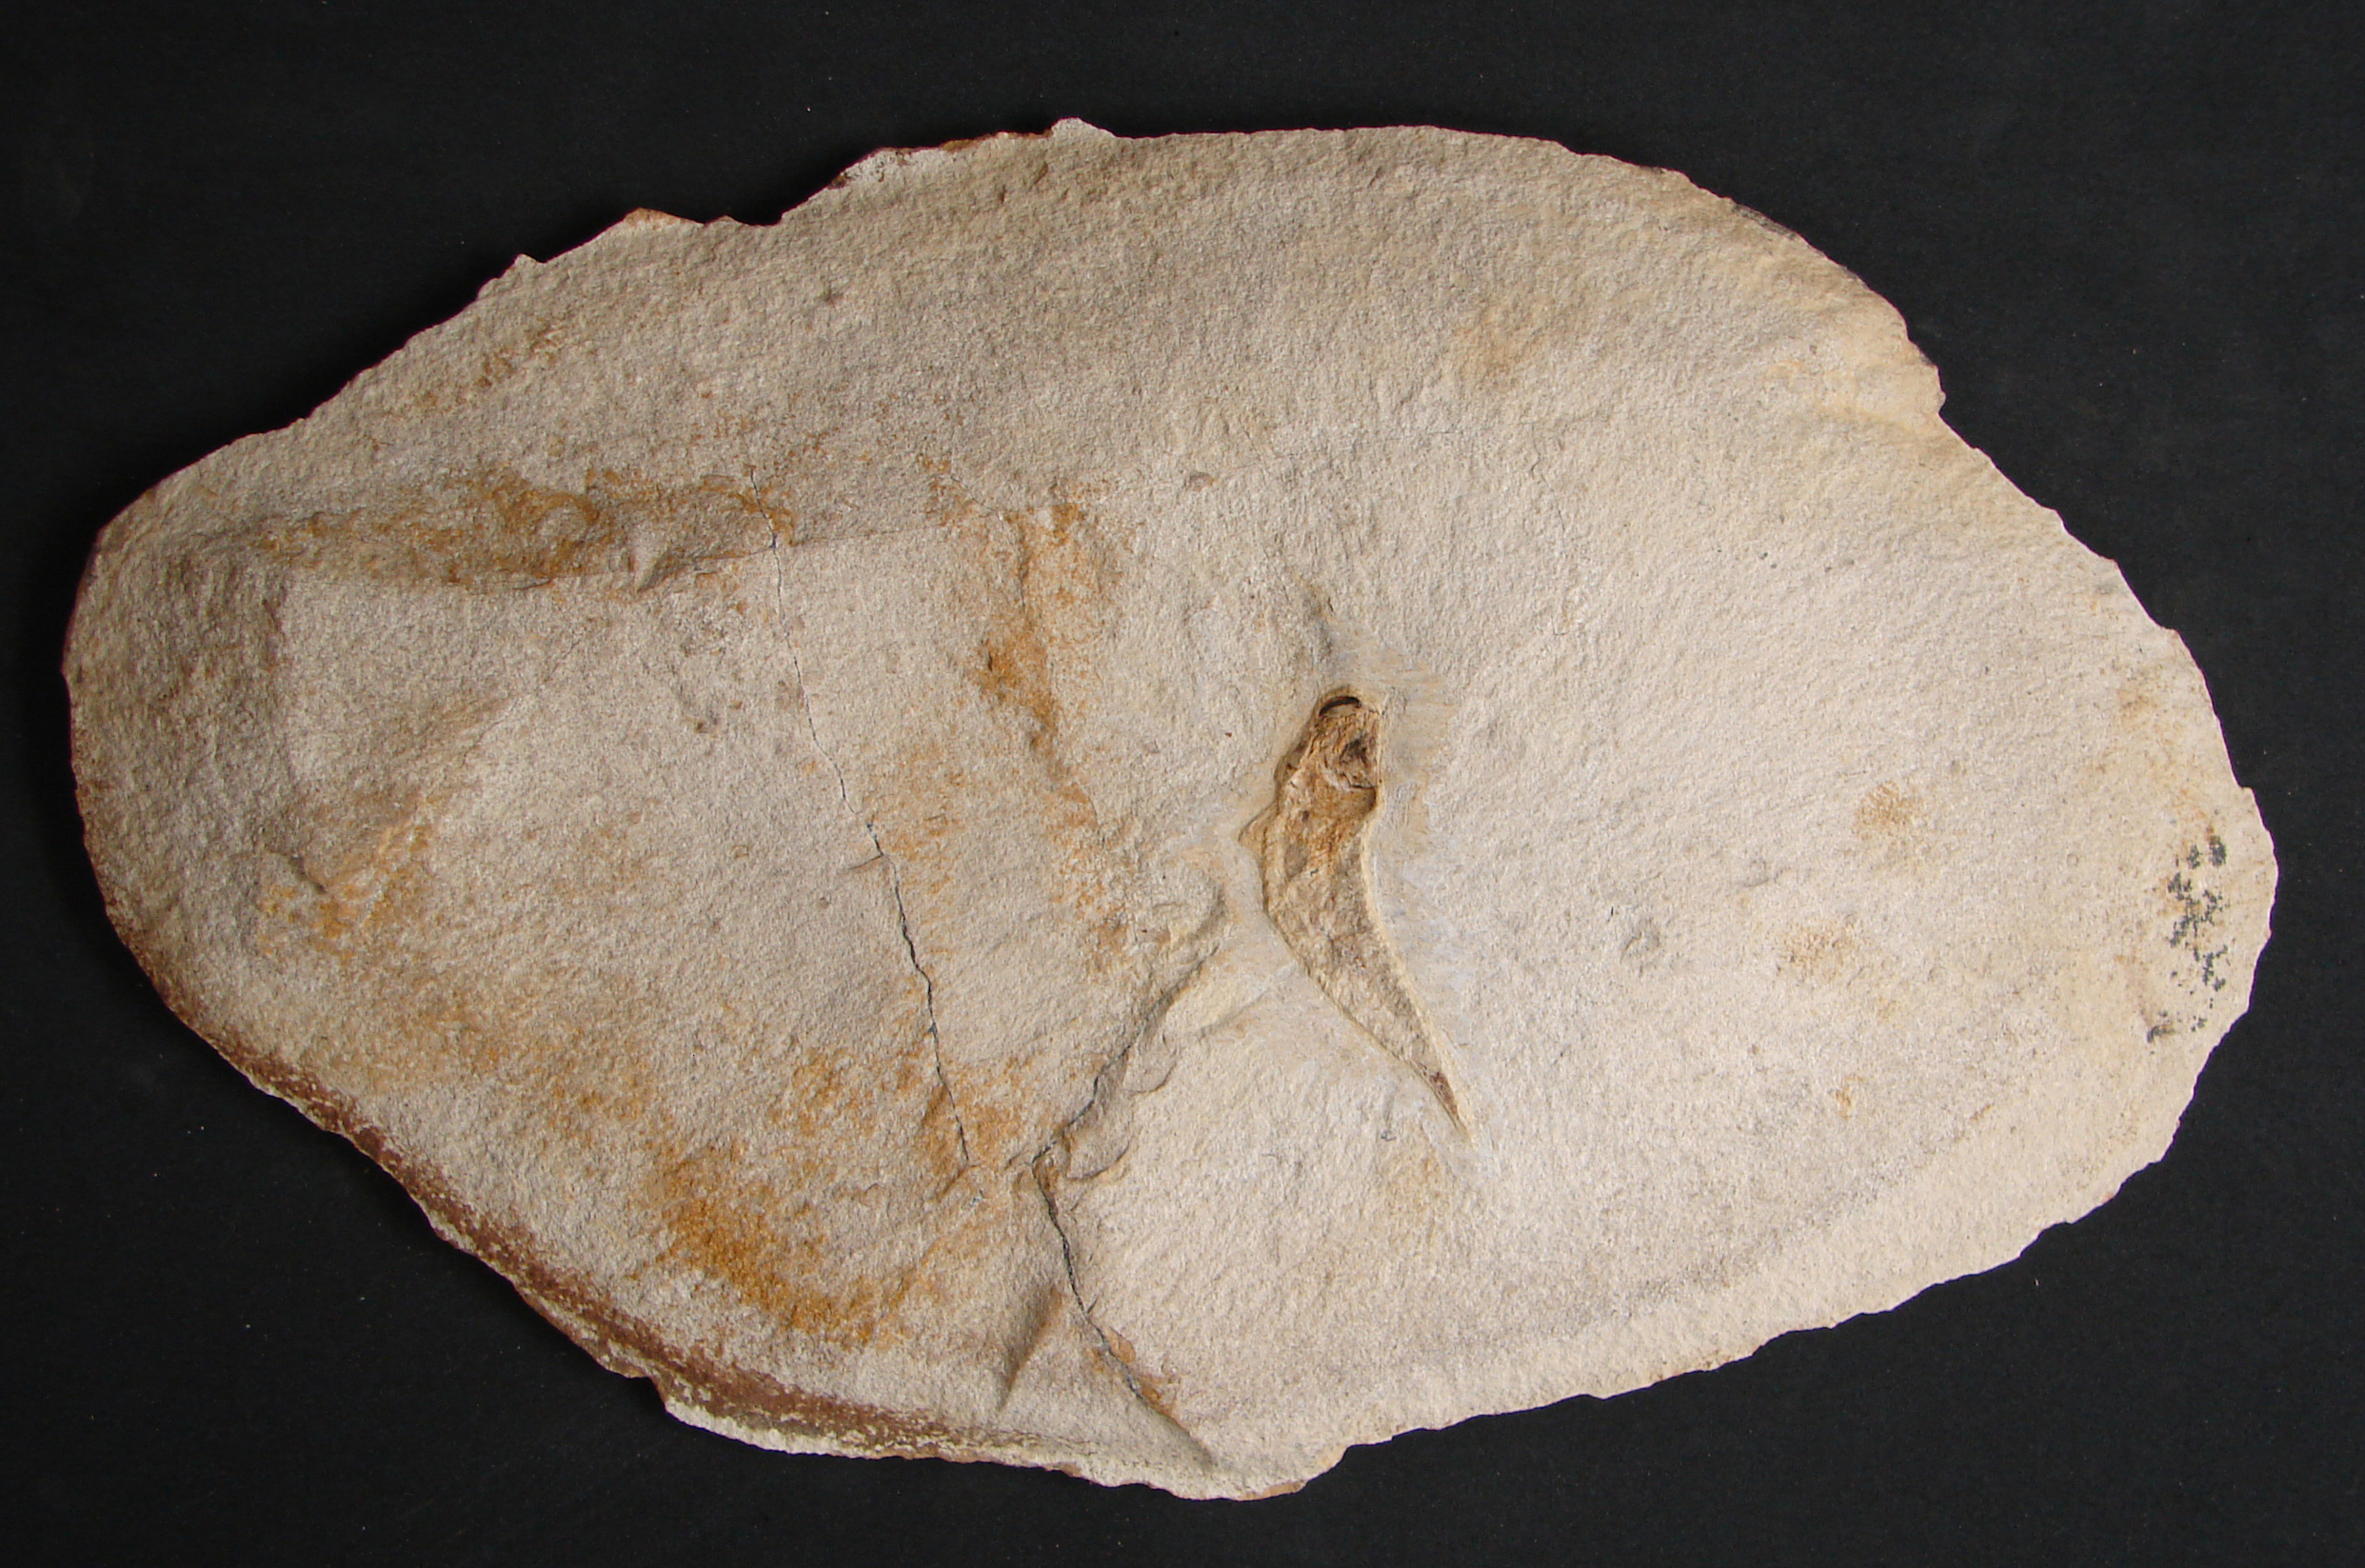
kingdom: Animalia
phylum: Chordata
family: Leptolepididae
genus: Leptolepis
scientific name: Leptolepis normandica
